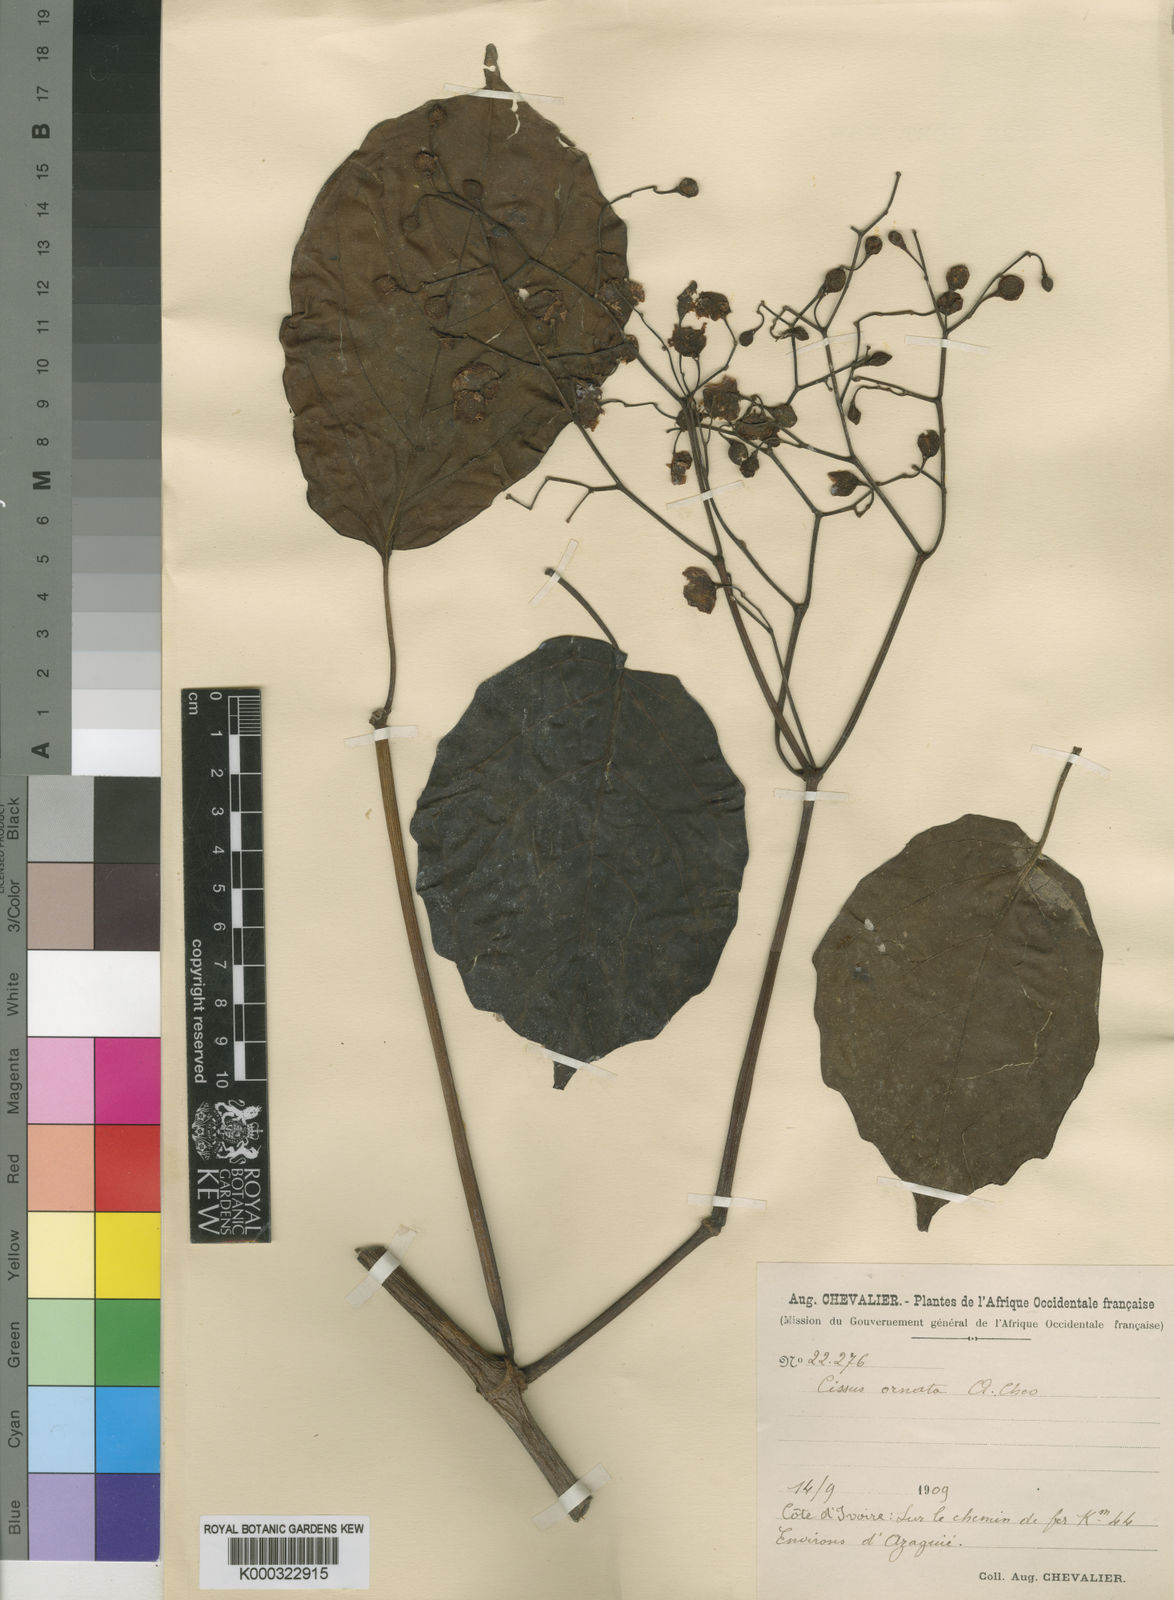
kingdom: Plantae
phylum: Tracheophyta
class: Magnoliopsida
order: Vitales
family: Vitaceae
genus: Cyphostemma
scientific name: Cyphostemma ornatum
